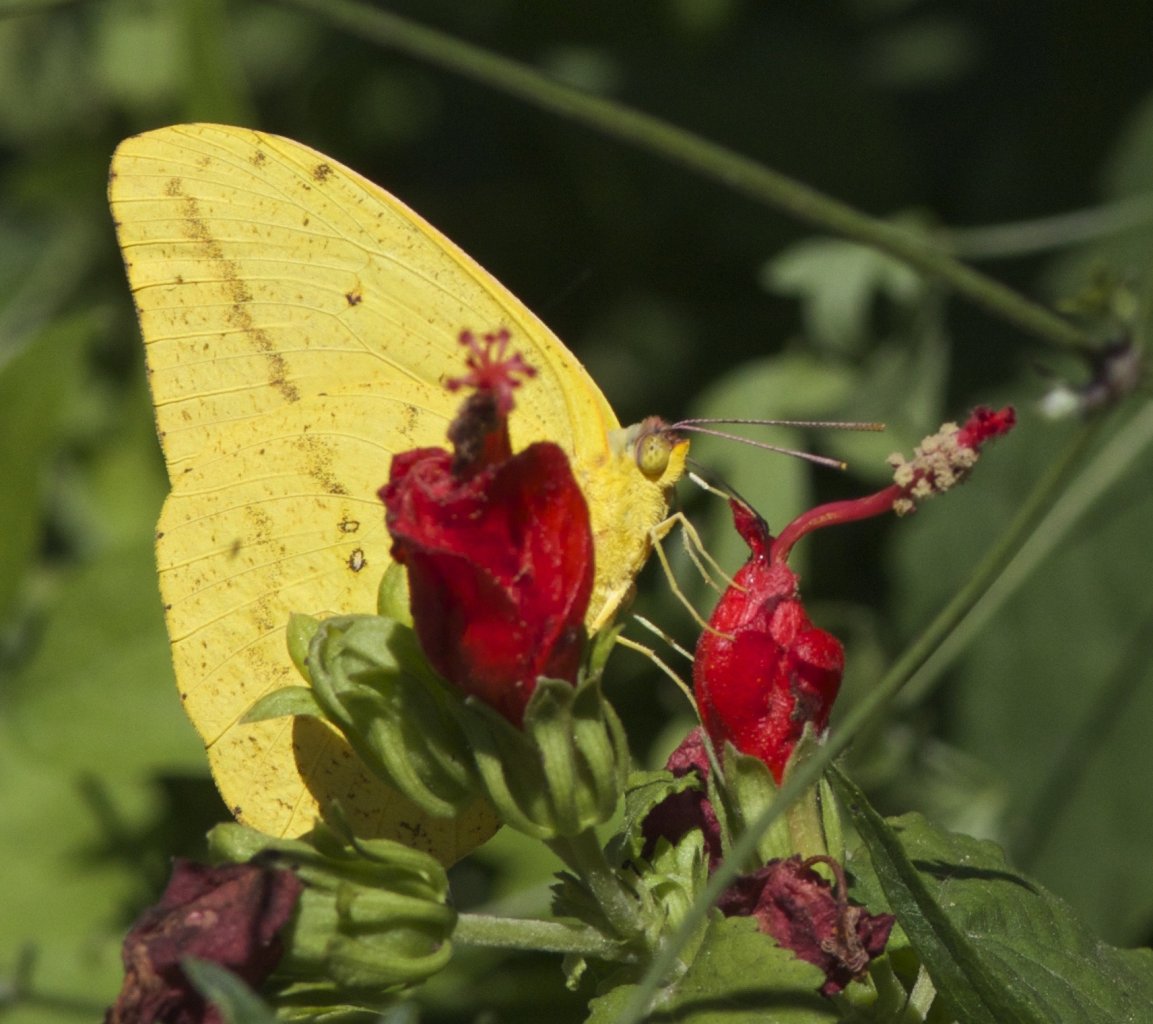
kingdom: Animalia
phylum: Arthropoda
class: Insecta
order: Lepidoptera
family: Pieridae
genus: Phoebis
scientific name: Phoebis agarithe
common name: Large Orange Sulphur
